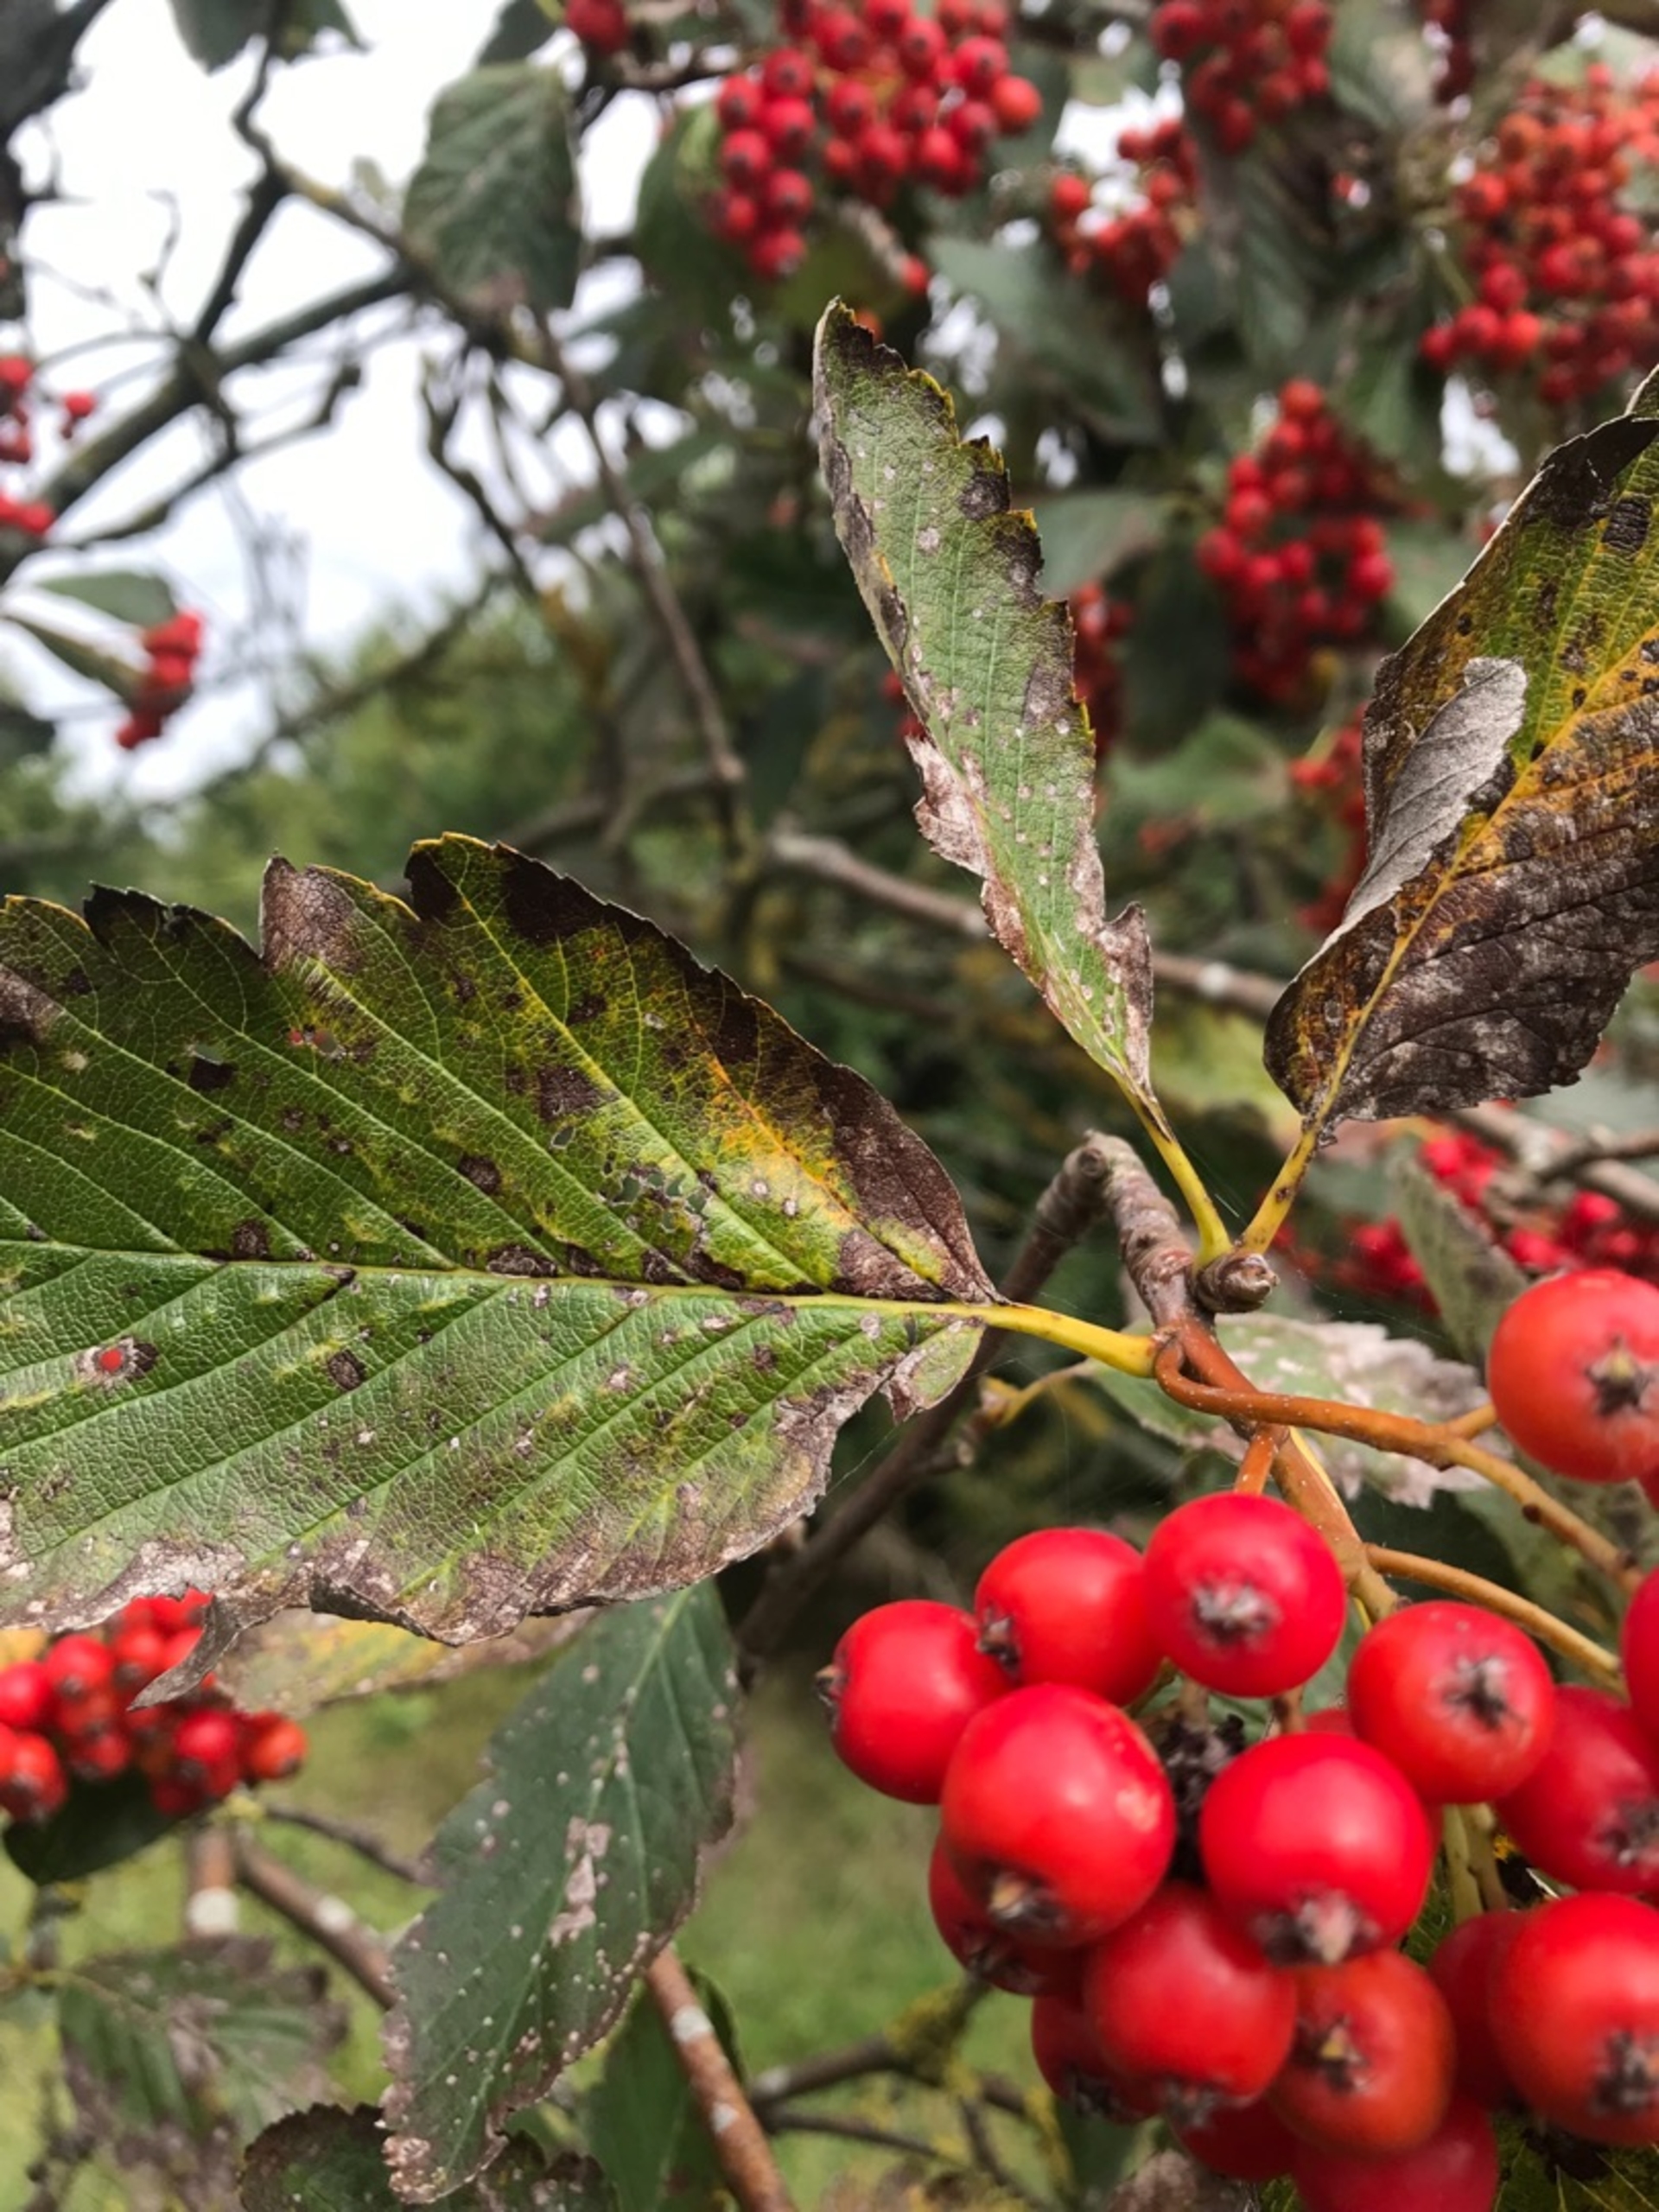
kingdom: Plantae
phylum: Tracheophyta
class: Magnoliopsida
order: Rosales
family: Rosaceae
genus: Scandosorbus
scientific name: Scandosorbus intermedia
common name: Selje-røn
